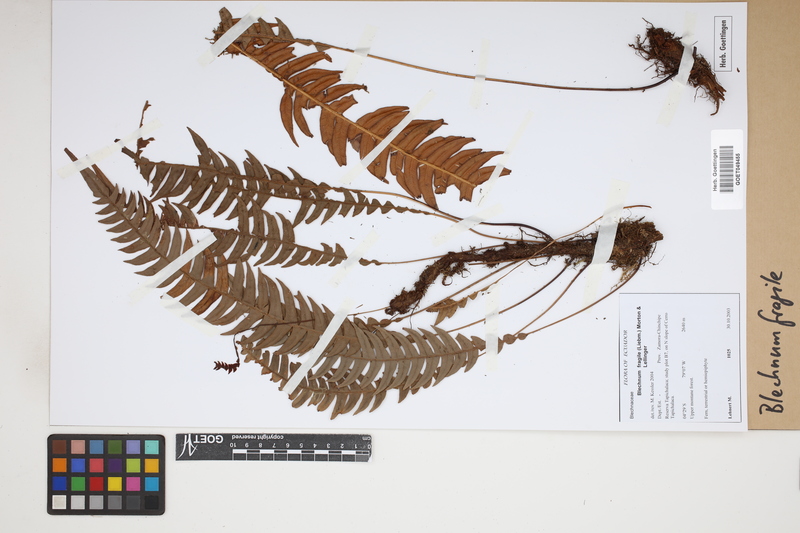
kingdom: Plantae
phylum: Tracheophyta
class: Polypodiopsida
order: Polypodiales
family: Blechnaceae
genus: Lomaridium
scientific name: Lomaridium fragile
